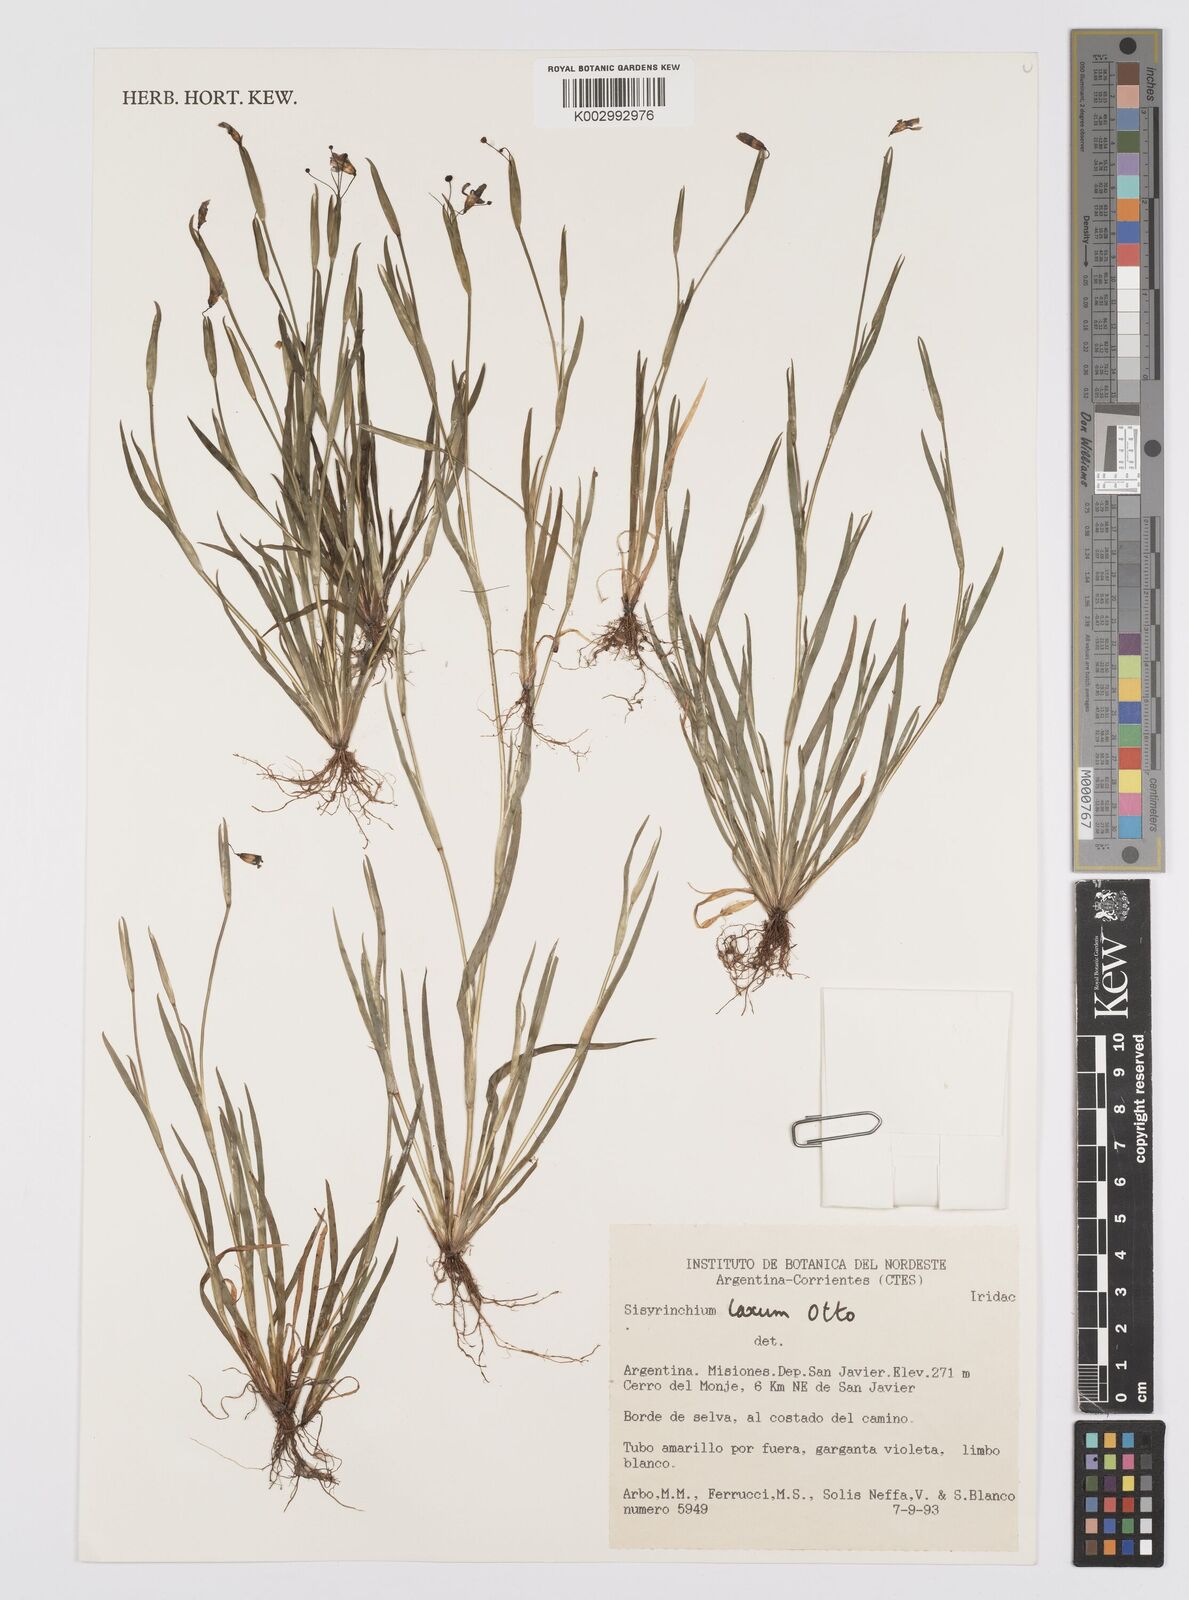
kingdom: Plantae
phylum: Tracheophyta
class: Liliopsida
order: Asparagales
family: Iridaceae
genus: Sisyrinchium
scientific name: Sisyrinchium laxum
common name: Veined yellow-eyed-grass
